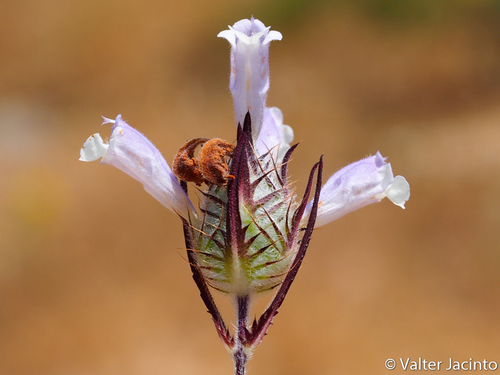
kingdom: Plantae
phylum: Tracheophyta
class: Magnoliopsida
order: Lamiales
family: Lamiaceae
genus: Cleonia
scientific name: Cleonia lusitanica
